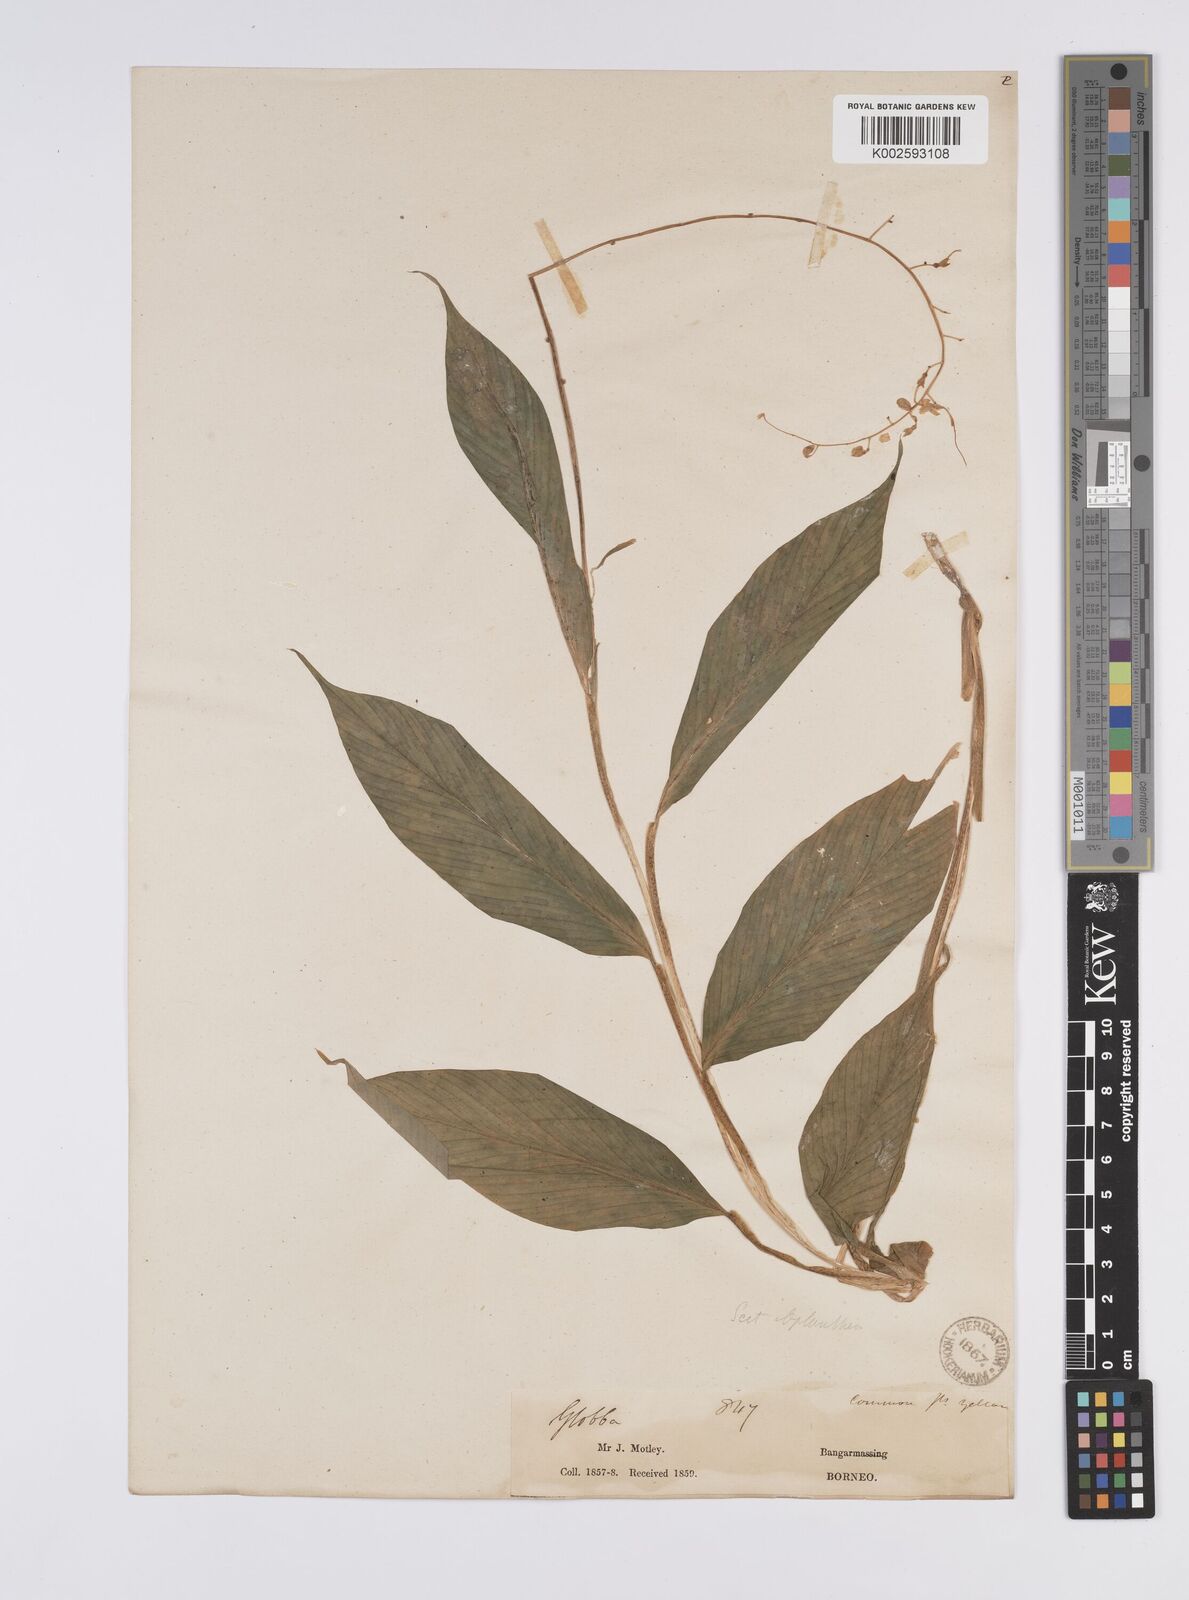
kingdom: Plantae
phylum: Tracheophyta
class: Liliopsida
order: Zingiberales
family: Zingiberaceae
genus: Globba
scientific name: Globba pendula
